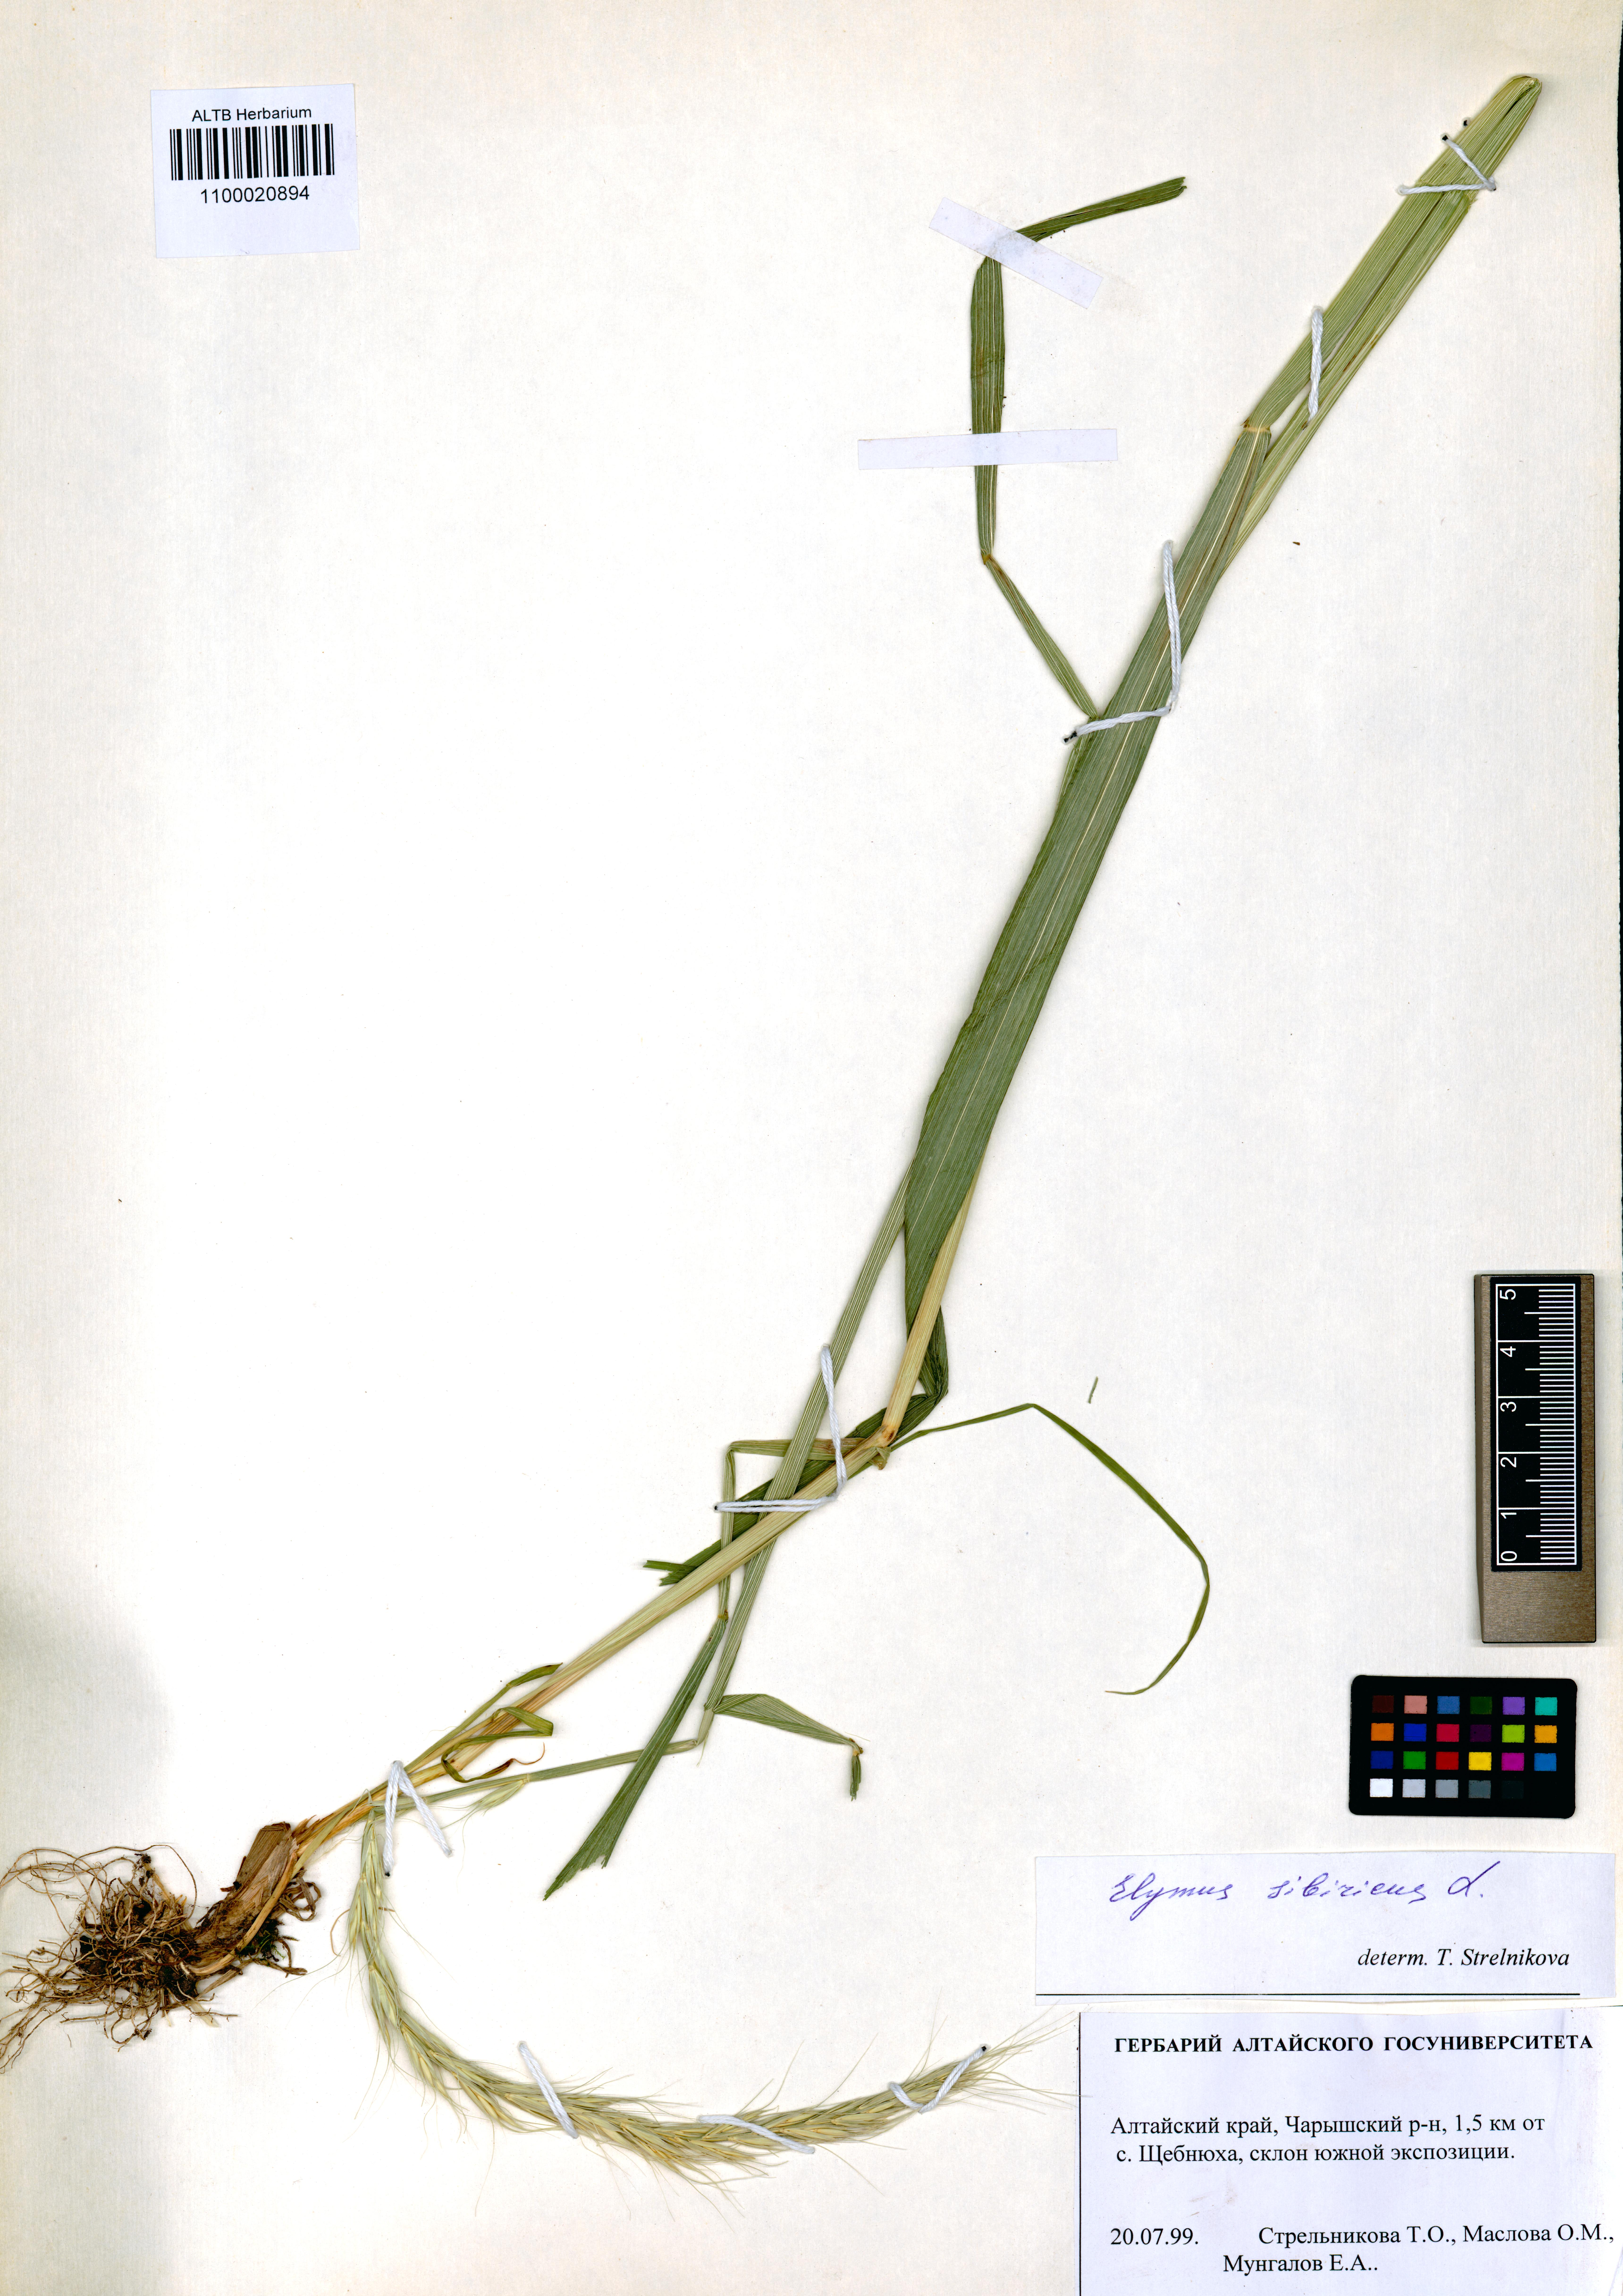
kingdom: Plantae
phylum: Tracheophyta
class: Liliopsida
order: Poales
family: Poaceae
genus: Elymus
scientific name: Elymus sibiricus
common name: Siberian wildrye
